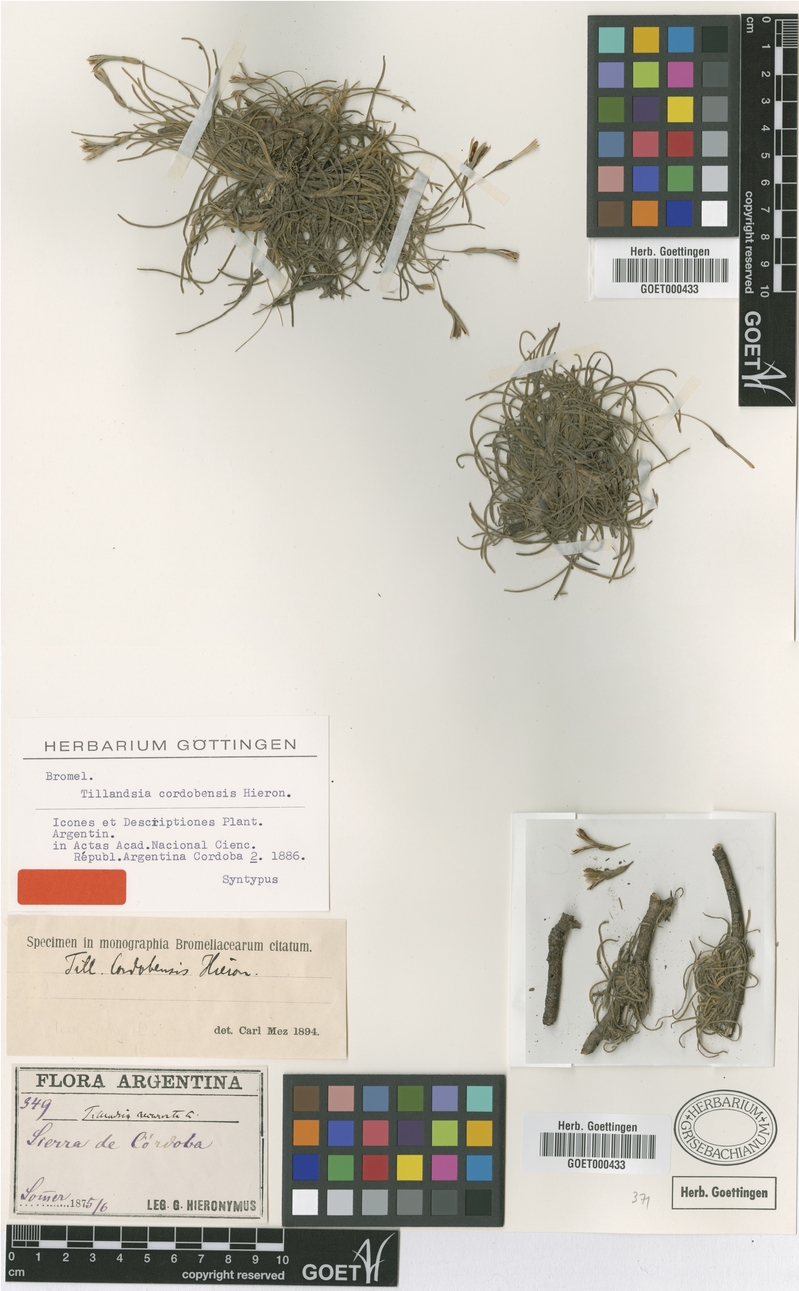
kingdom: Plantae
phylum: Tracheophyta
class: Liliopsida
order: Poales
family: Bromeliaceae
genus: Tillandsia
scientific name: Tillandsia virescens
